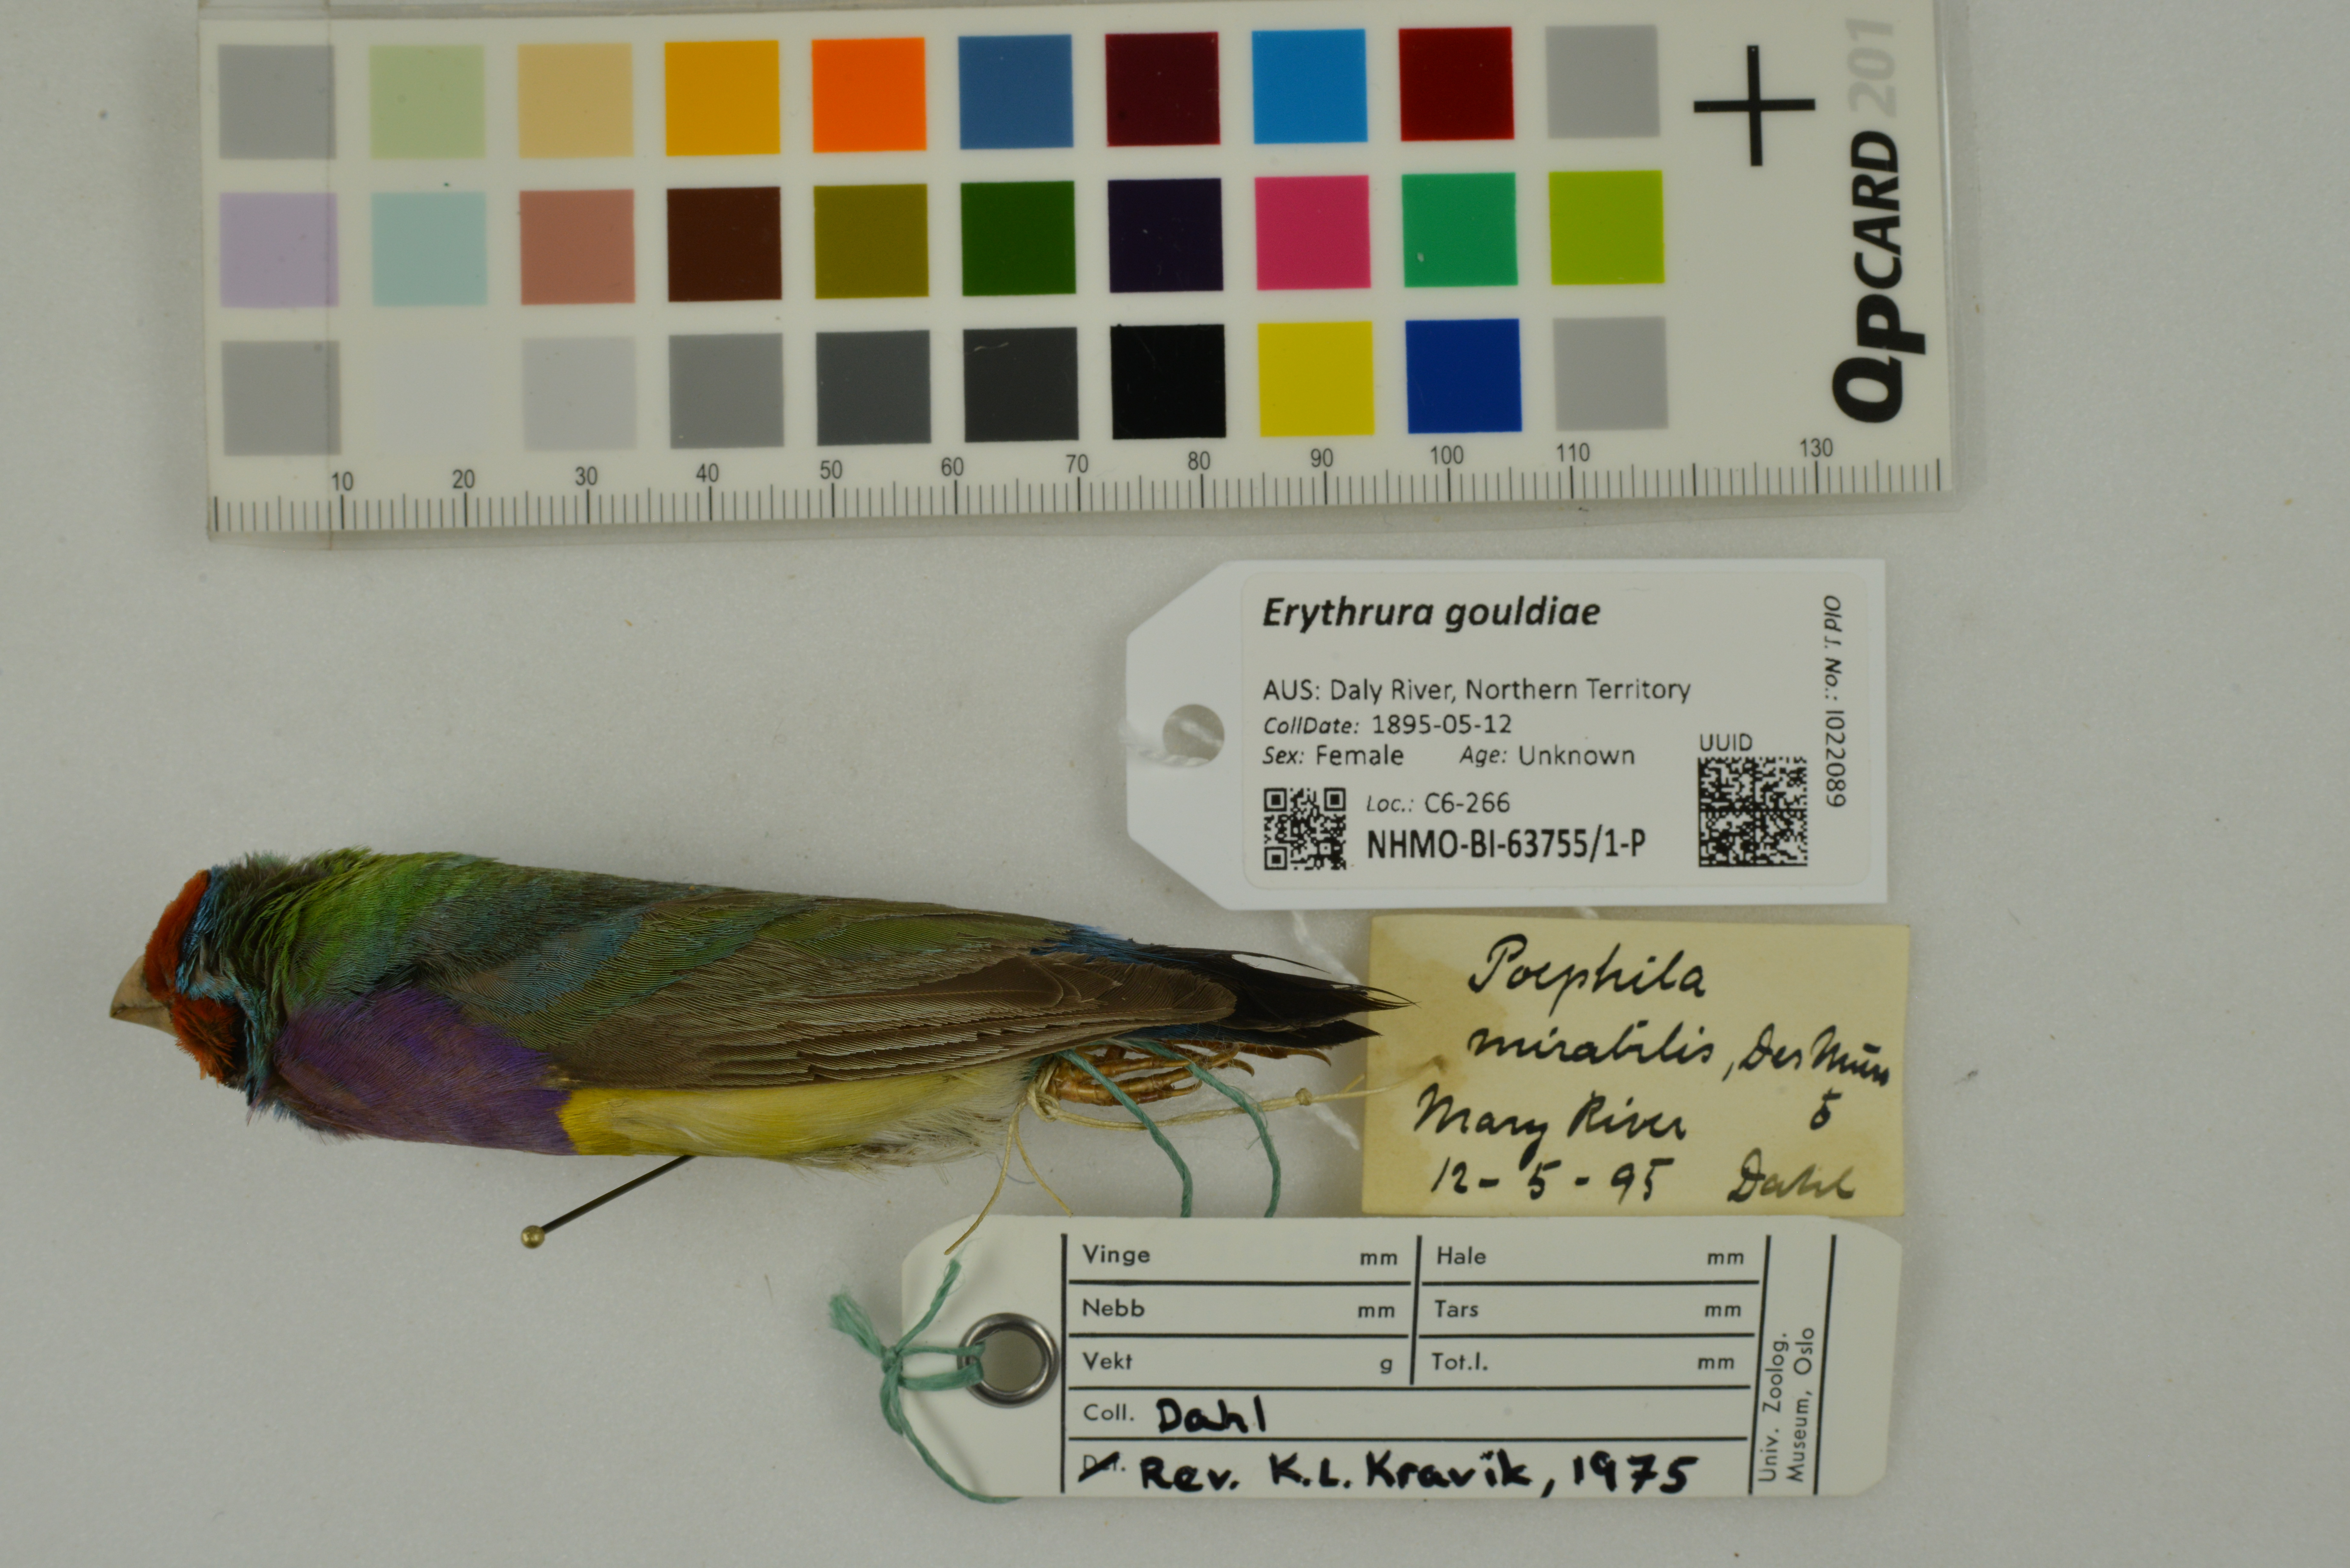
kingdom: Animalia
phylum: Chordata
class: Aves
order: Passeriformes
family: Estrildidae
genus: Erythrura
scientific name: Erythrura gouldiae
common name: Gouldian finch
